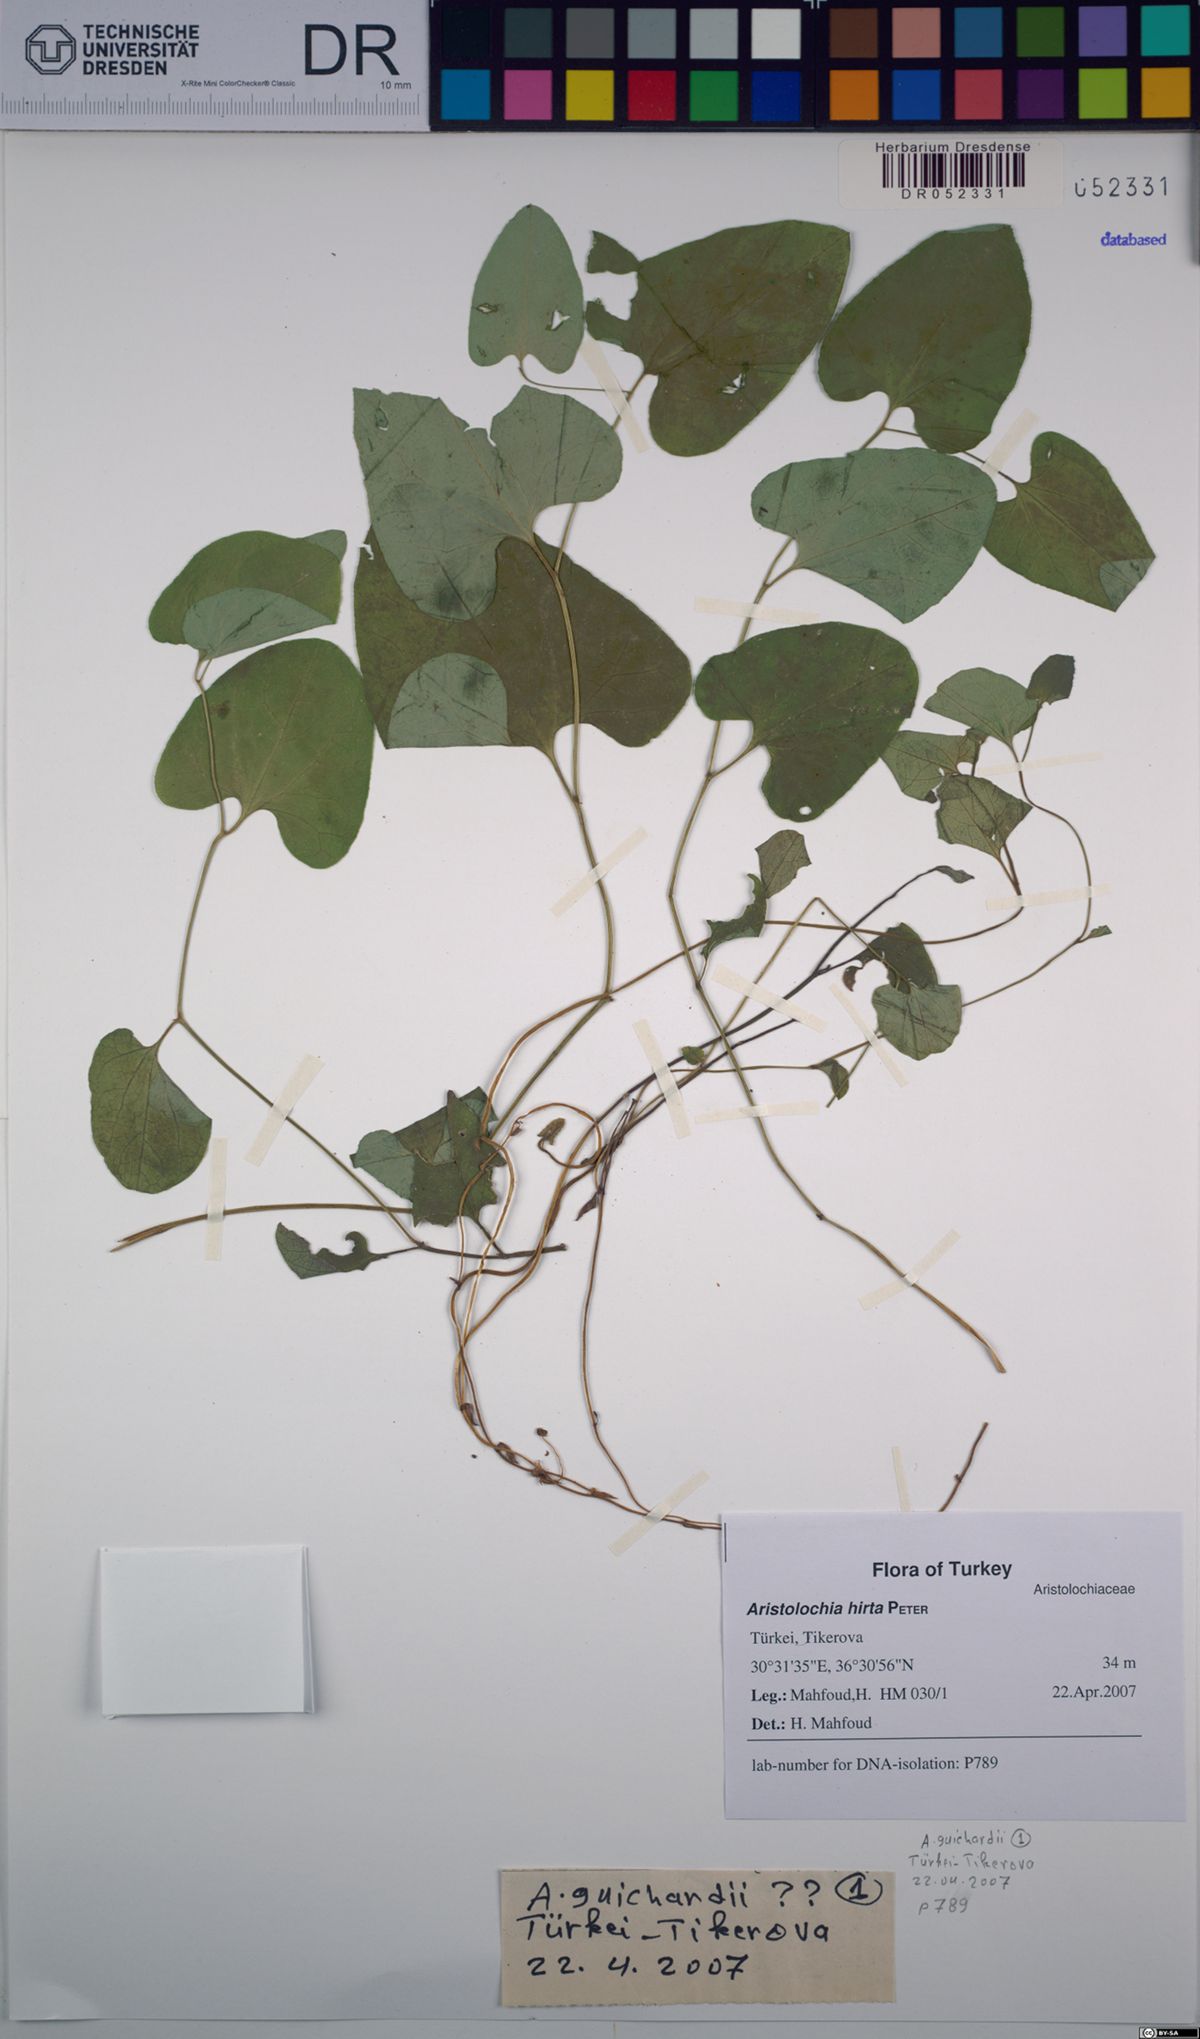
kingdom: Plantae
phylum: Tracheophyta
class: Magnoliopsida
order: Piperales
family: Aristolochiaceae
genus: Aristolochia
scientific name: Aristolochia hockii
